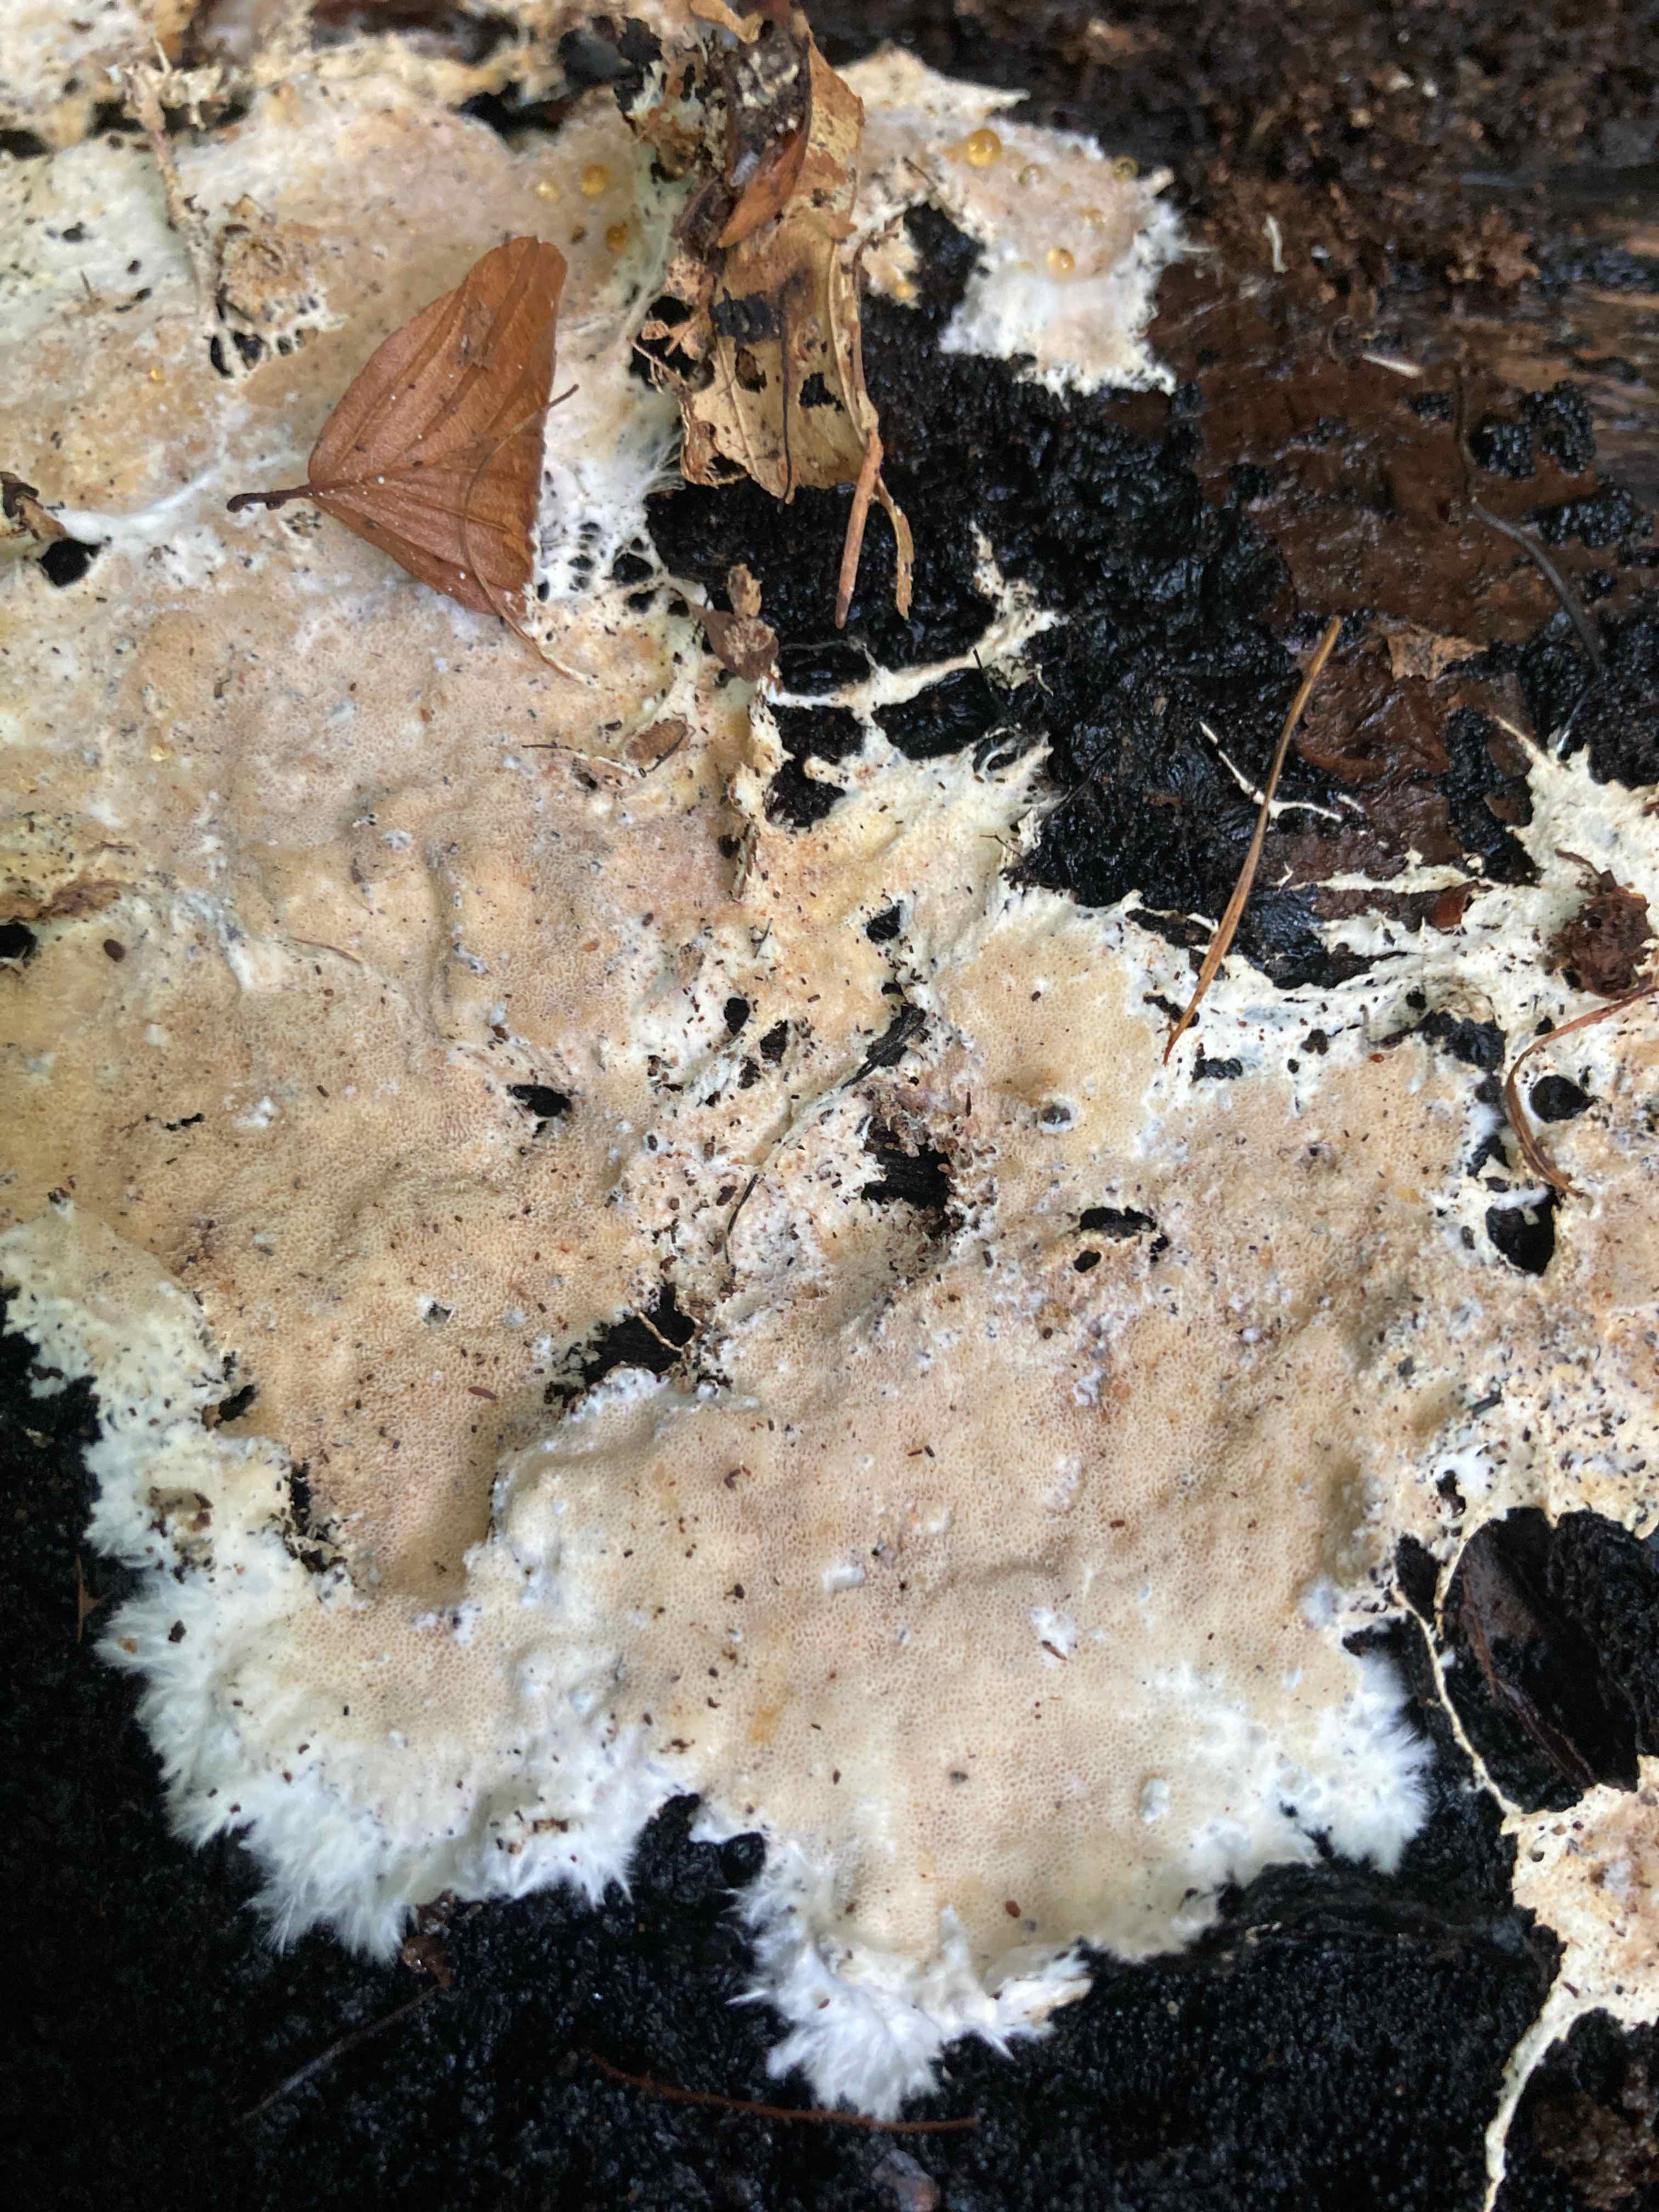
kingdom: Fungi
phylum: Basidiomycota
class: Agaricomycetes
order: Agaricales
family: Porotheleaceae
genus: Porotheleum
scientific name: Porotheleum fimbriatum
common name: poreskål
